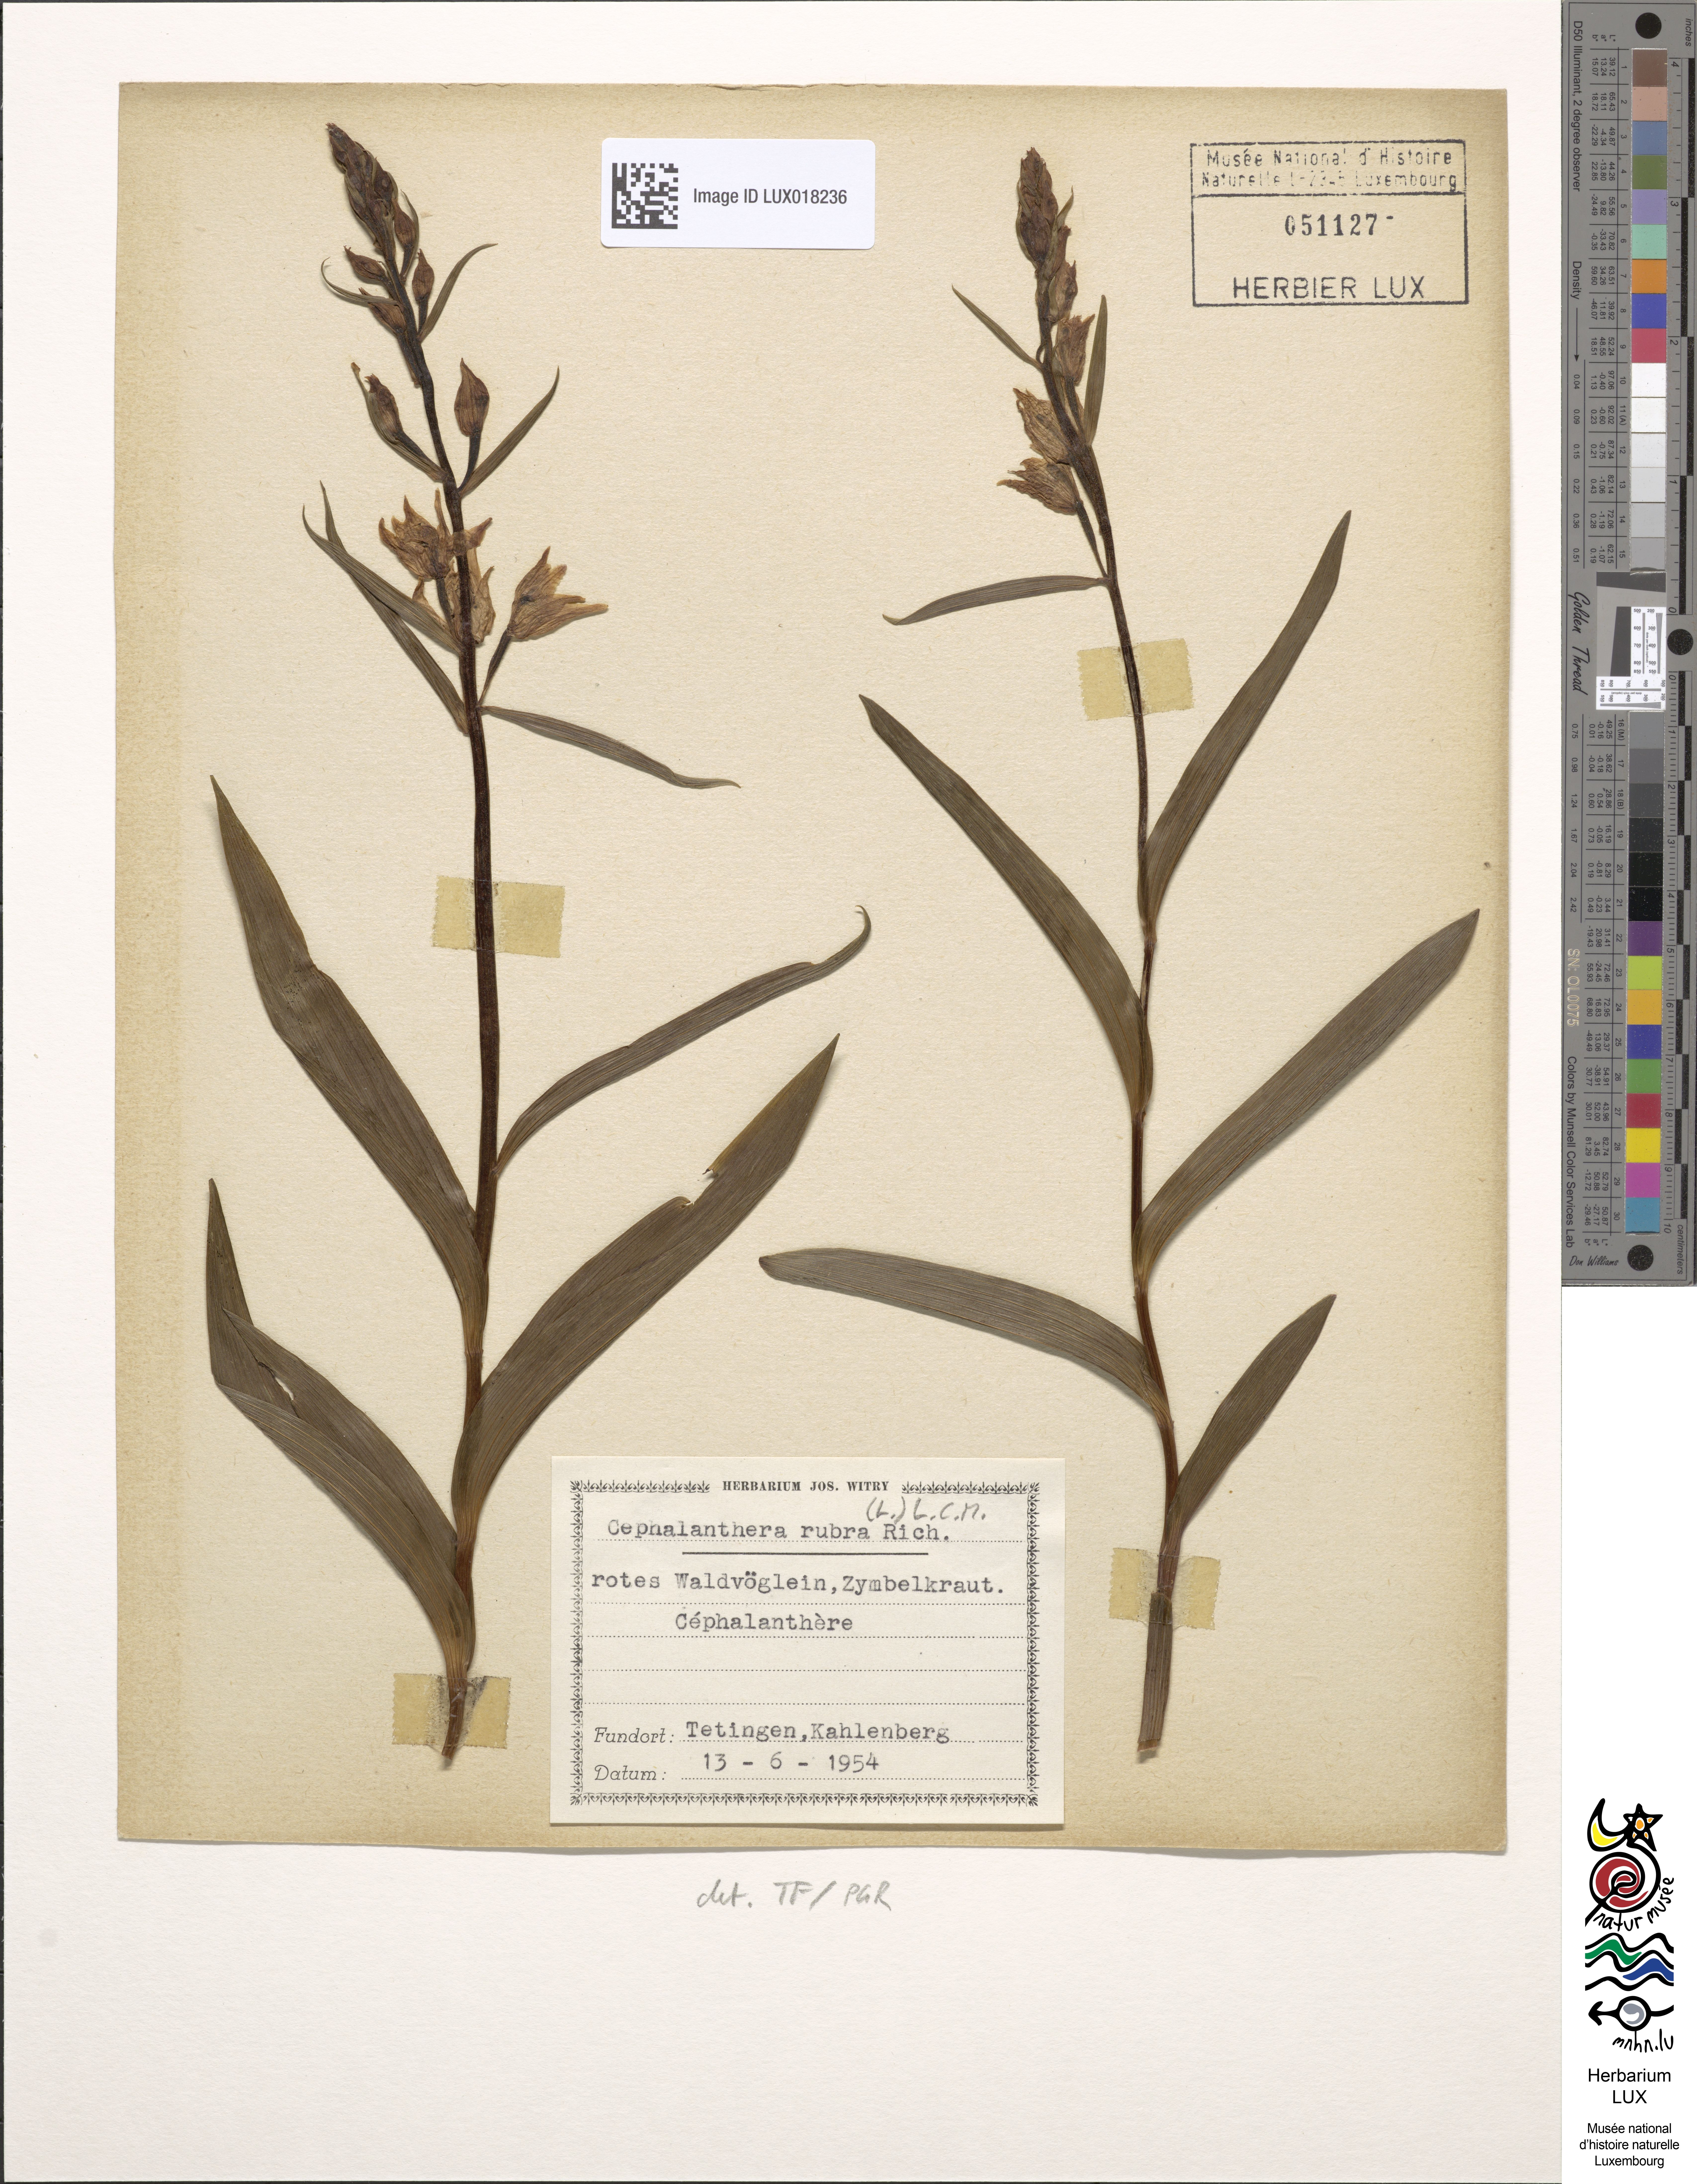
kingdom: Plantae
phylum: Tracheophyta
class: Liliopsida
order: Asparagales
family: Orchidaceae
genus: Cephalanthera
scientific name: Cephalanthera rubra
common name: Red helleborine
